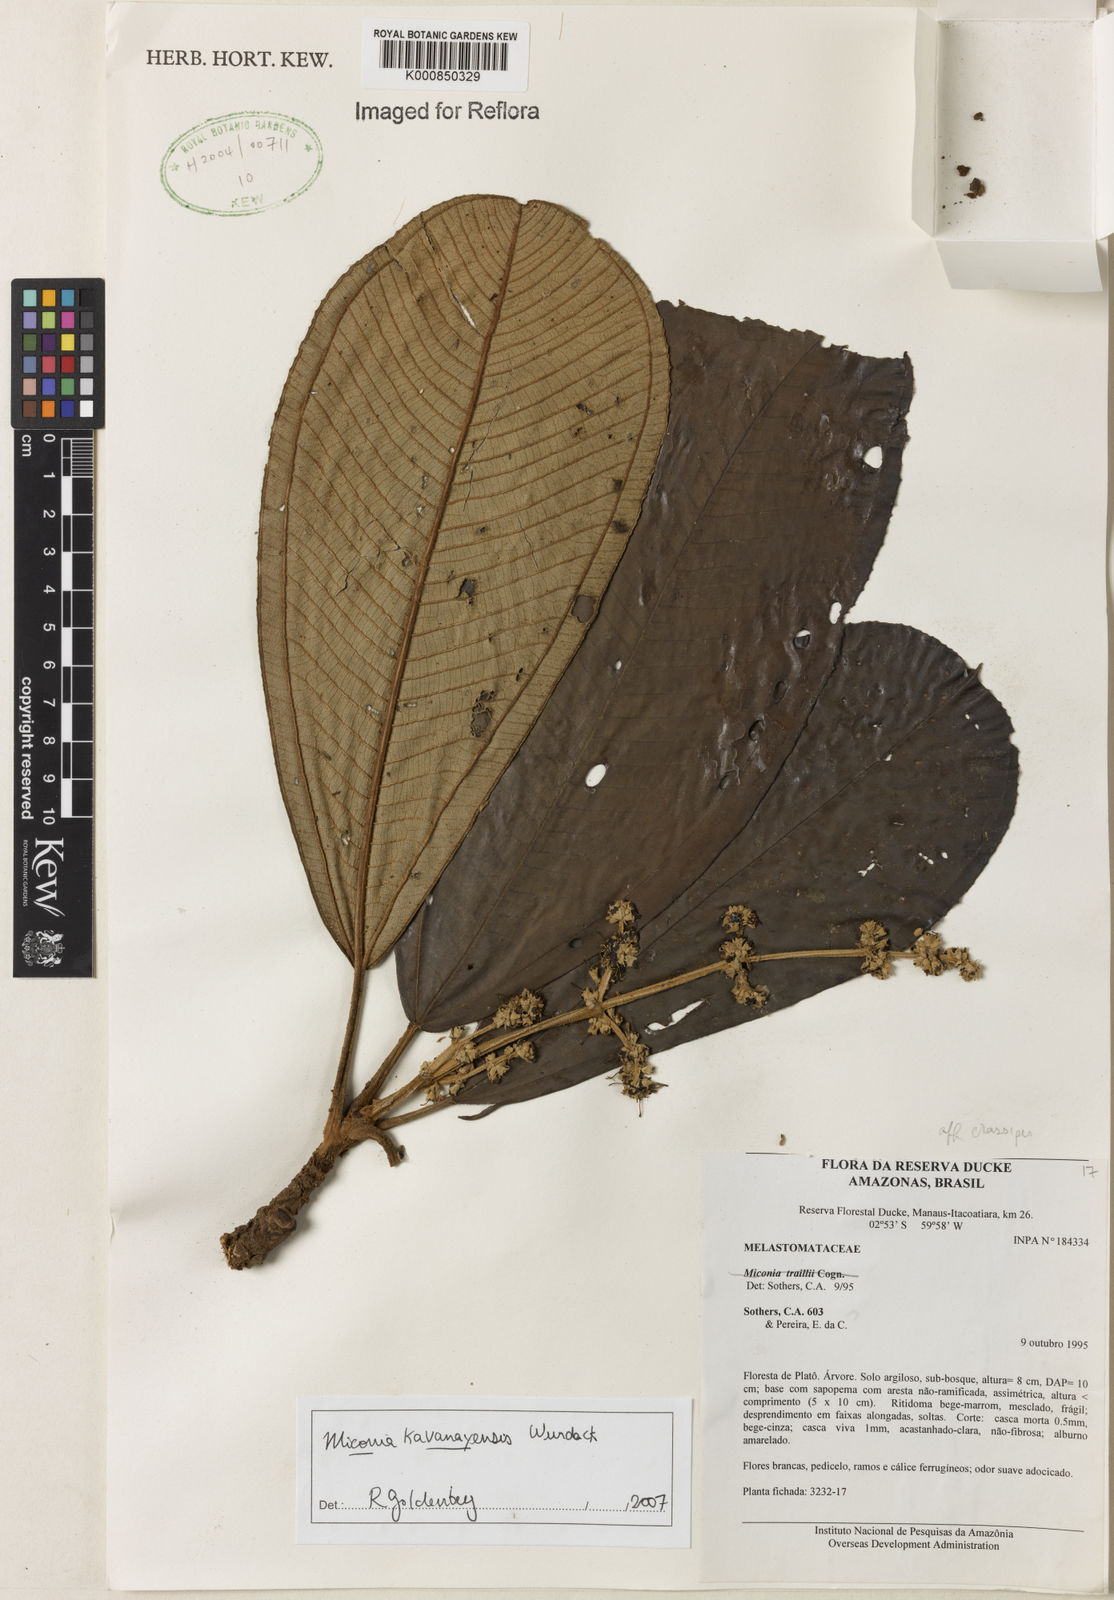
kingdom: Plantae
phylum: Tracheophyta
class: Magnoliopsida
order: Myrtales
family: Melastomataceae
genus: Miconia
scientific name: Miconia kavanayensis
